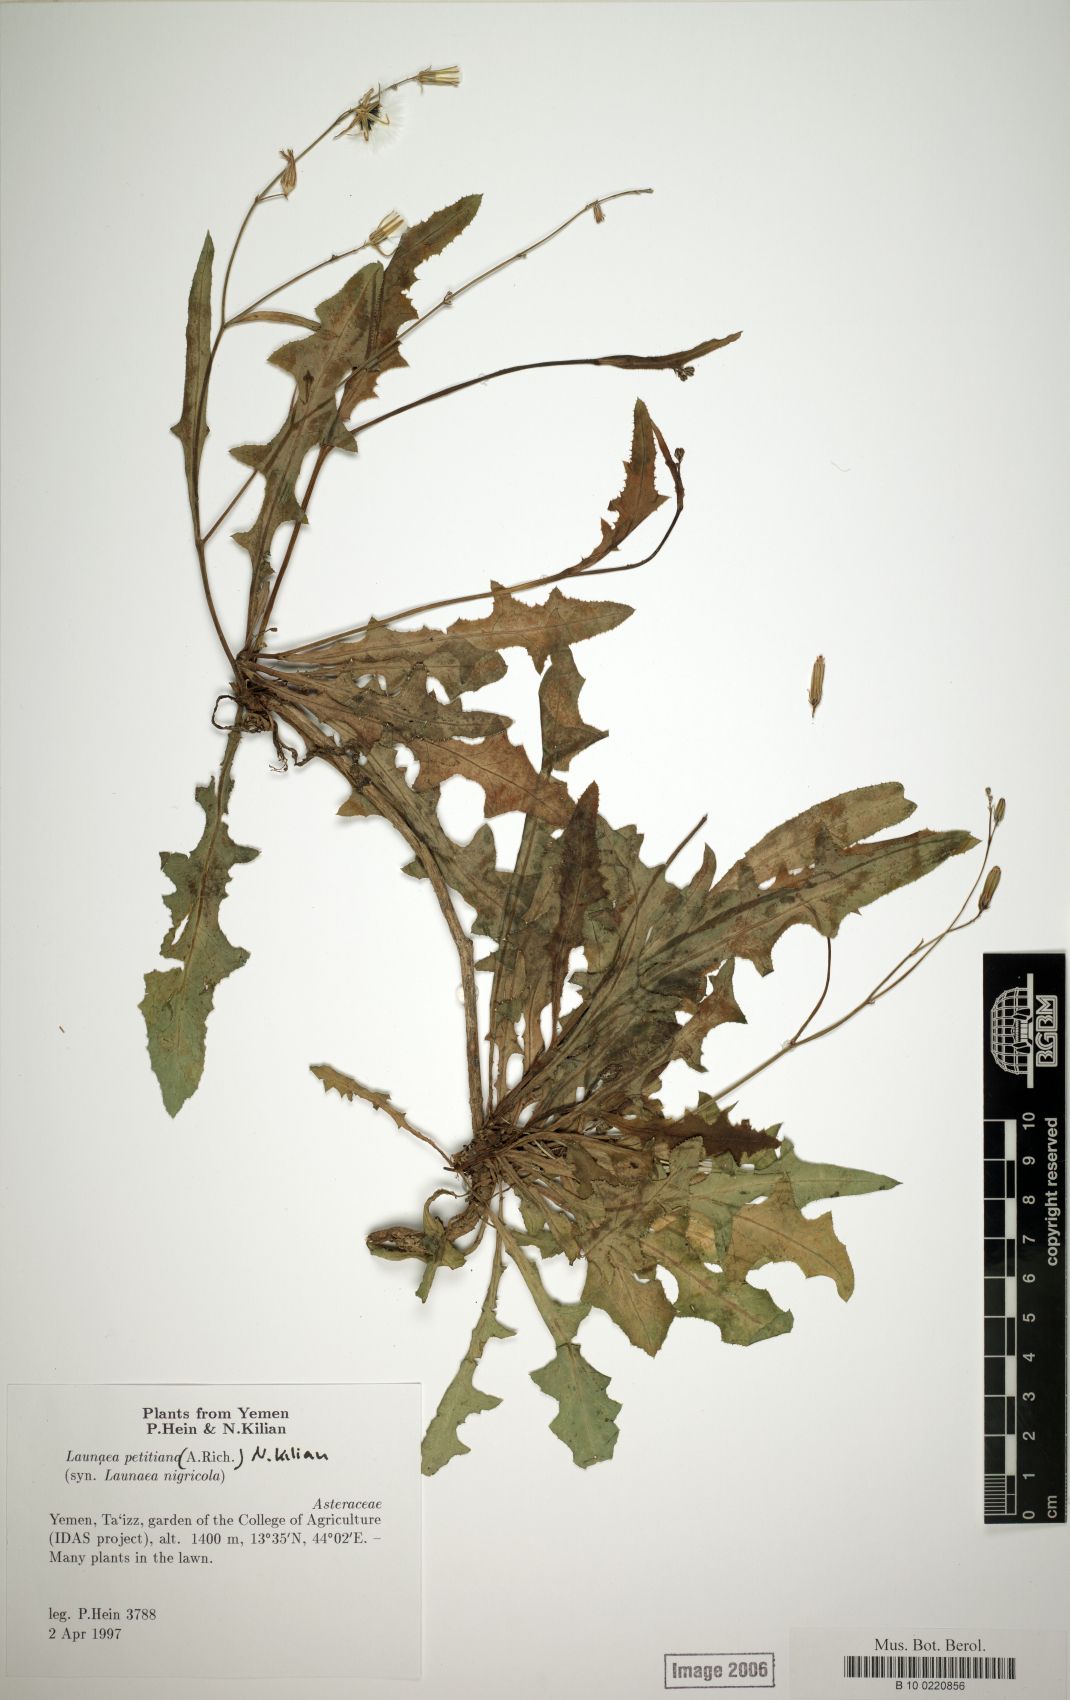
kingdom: Plantae
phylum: Tracheophyta
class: Magnoliopsida
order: Asterales
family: Asteraceae
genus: Launaea
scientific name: Launaea petitiana
